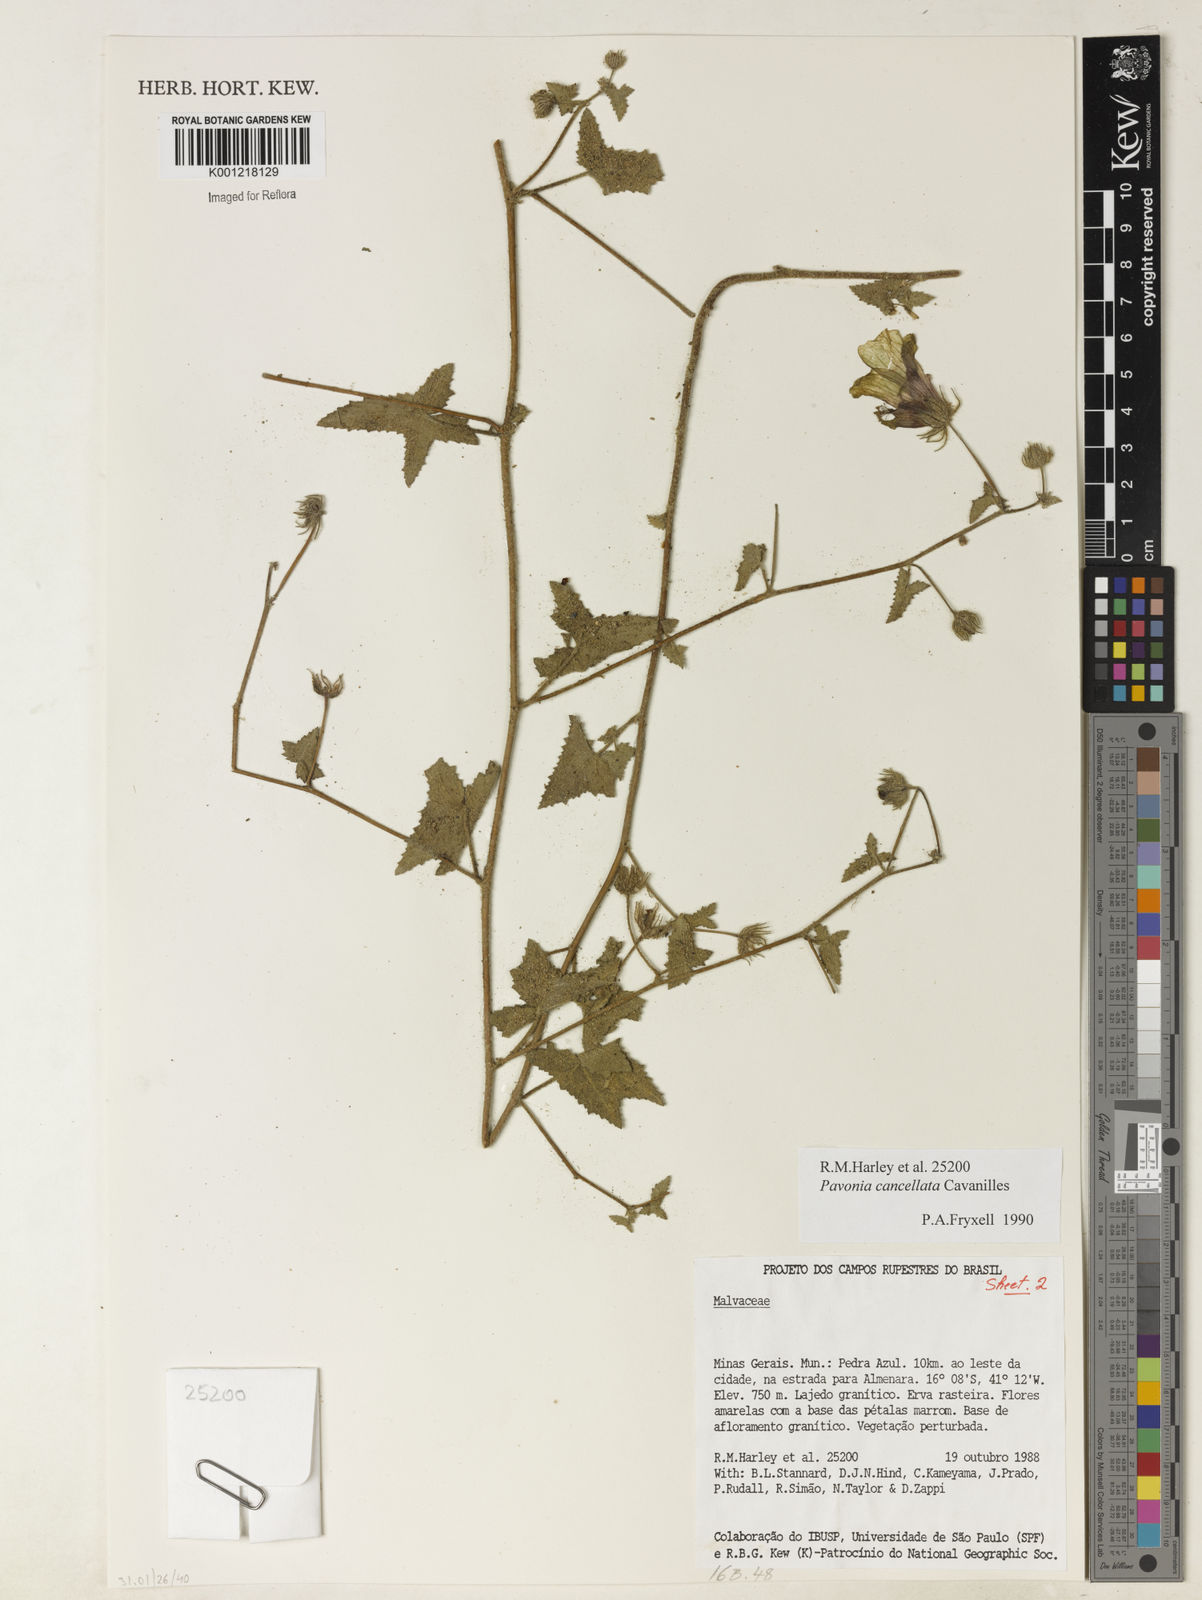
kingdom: Plantae
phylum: Tracheophyta
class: Magnoliopsida
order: Malvales
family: Malvaceae
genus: Pavonia
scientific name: Pavonia cancellata
